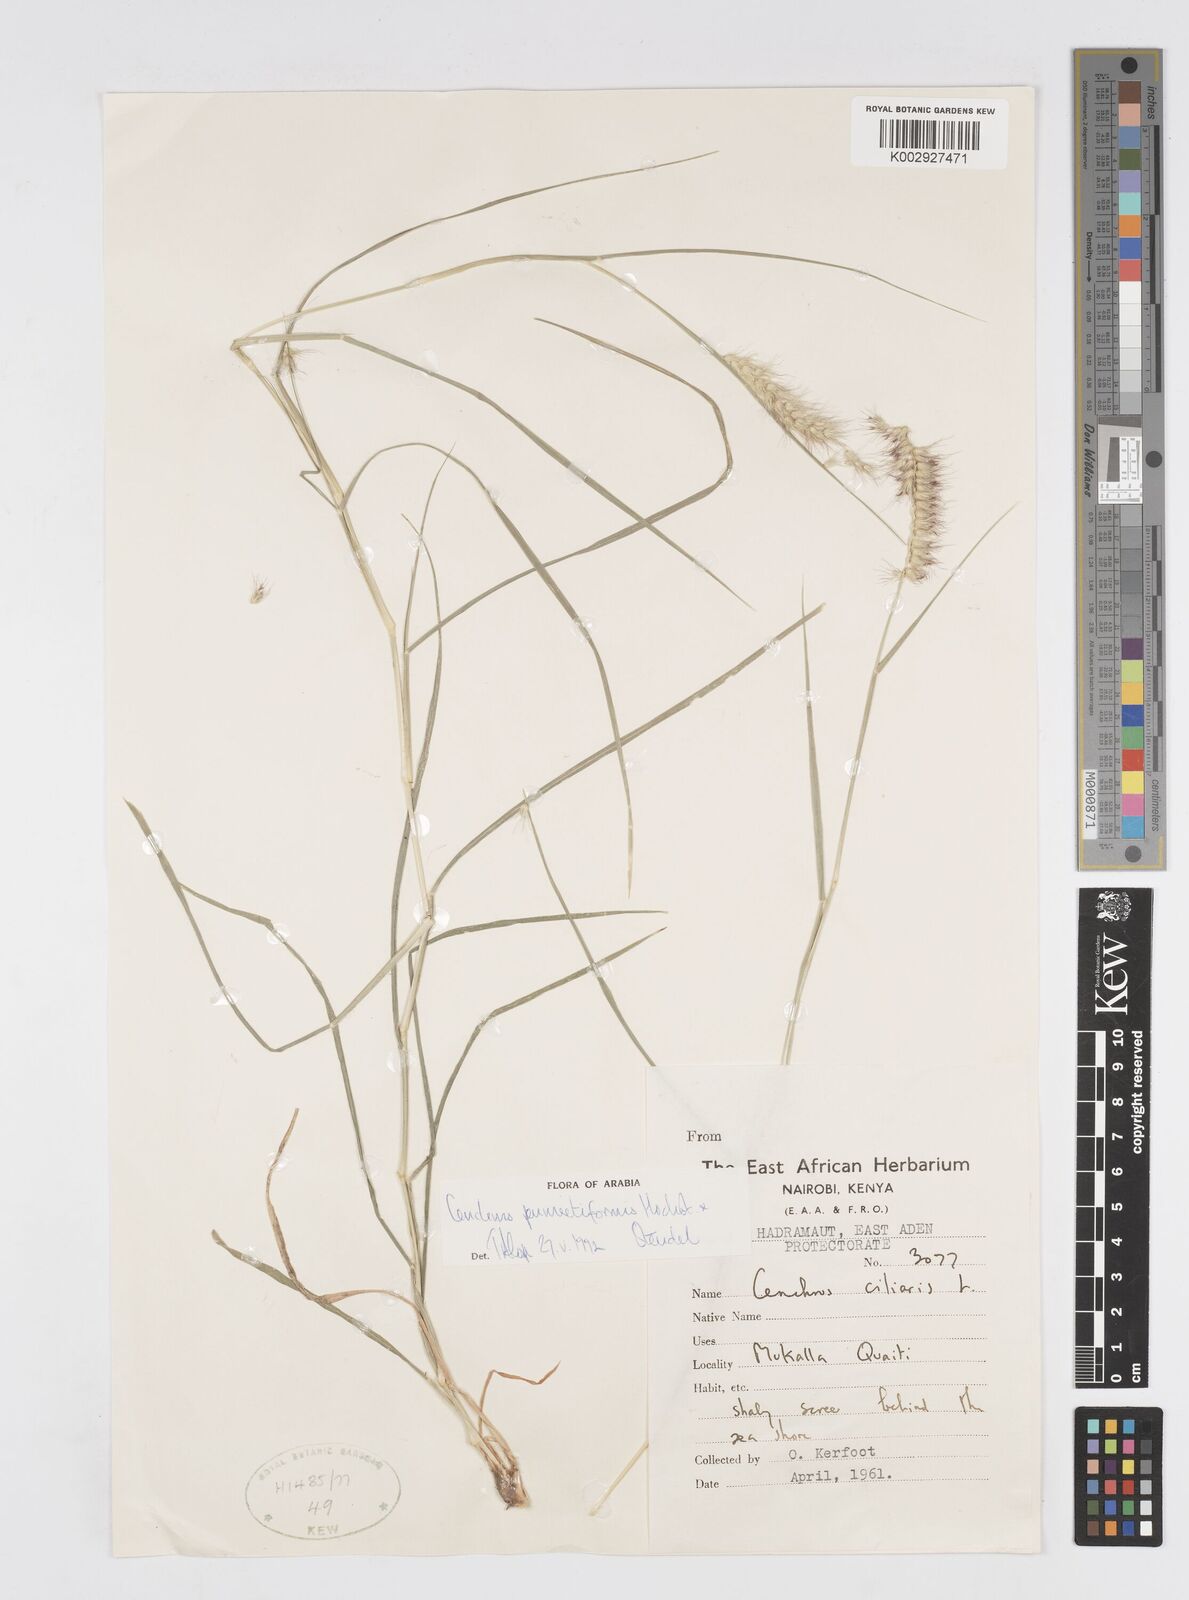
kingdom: Plantae
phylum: Tracheophyta
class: Liliopsida
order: Poales
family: Poaceae
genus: Cenchrus
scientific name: Cenchrus pennisetiformis
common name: Cloncurry
